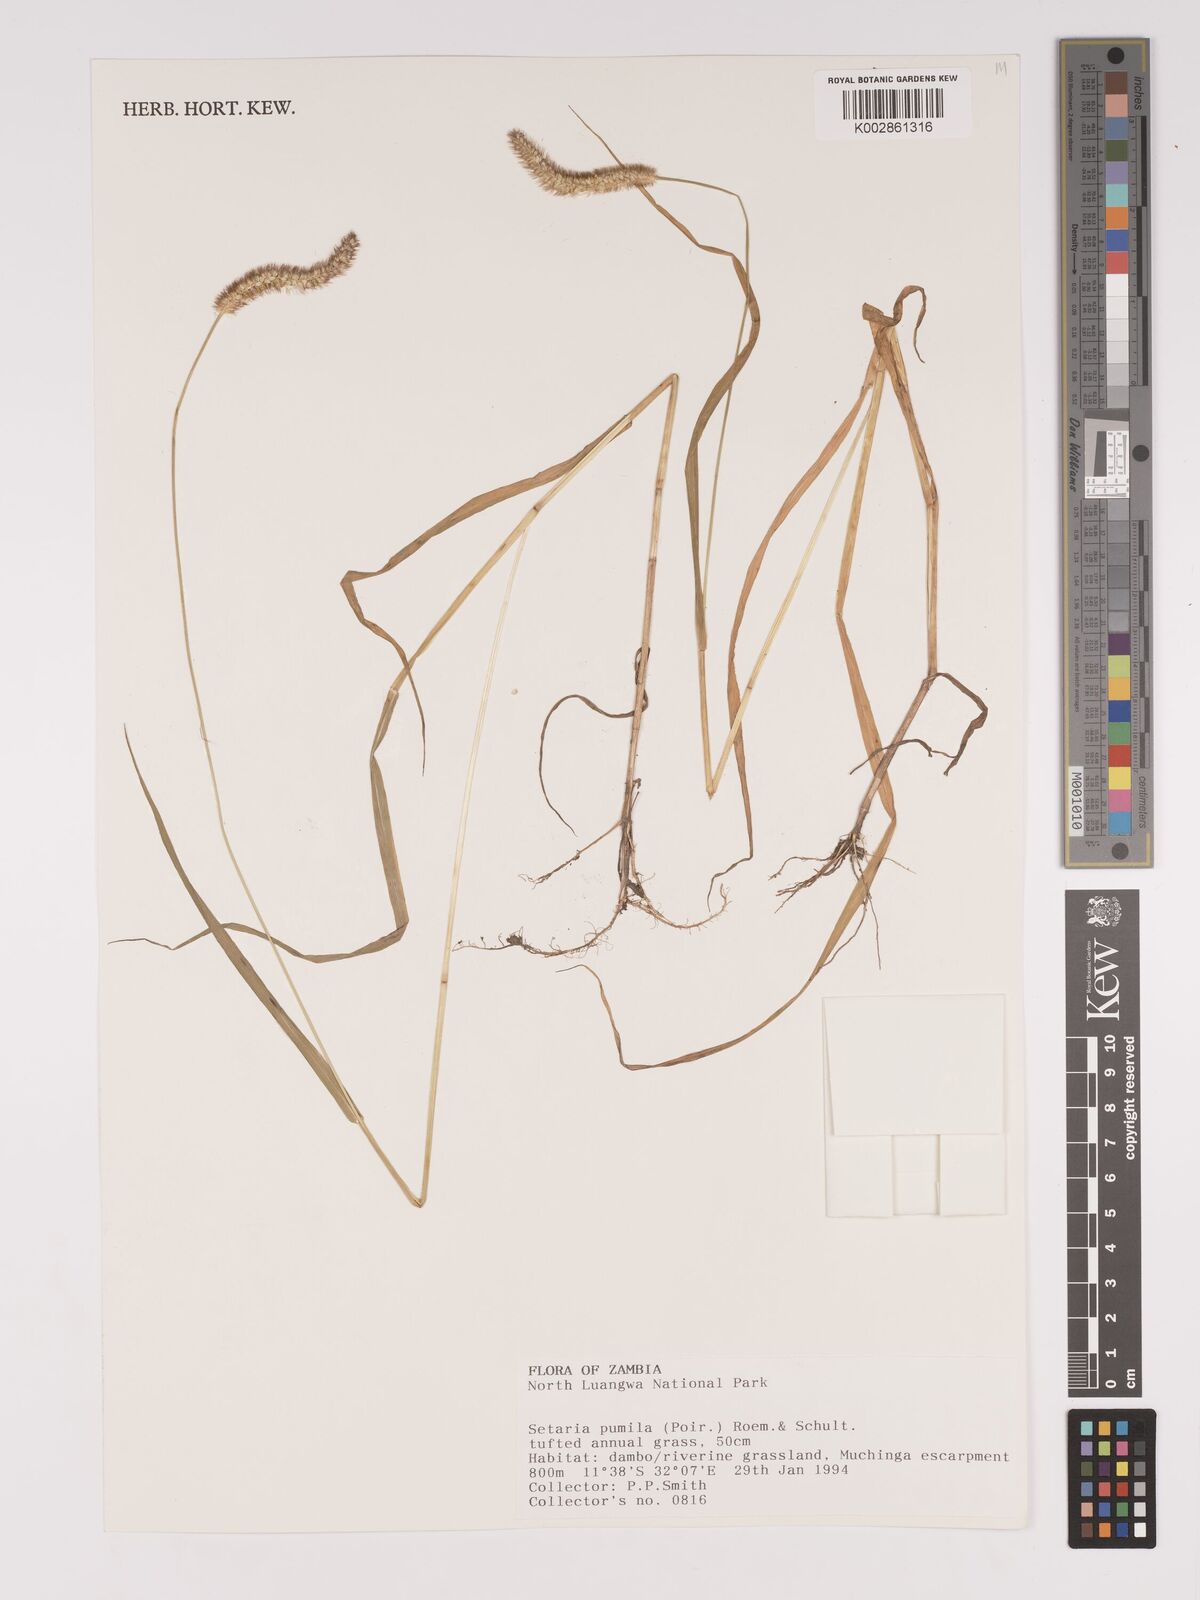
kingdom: Plantae
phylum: Tracheophyta
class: Liliopsida
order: Poales
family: Poaceae
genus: Setaria
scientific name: Setaria pumila
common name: Yellow bristle-grass
